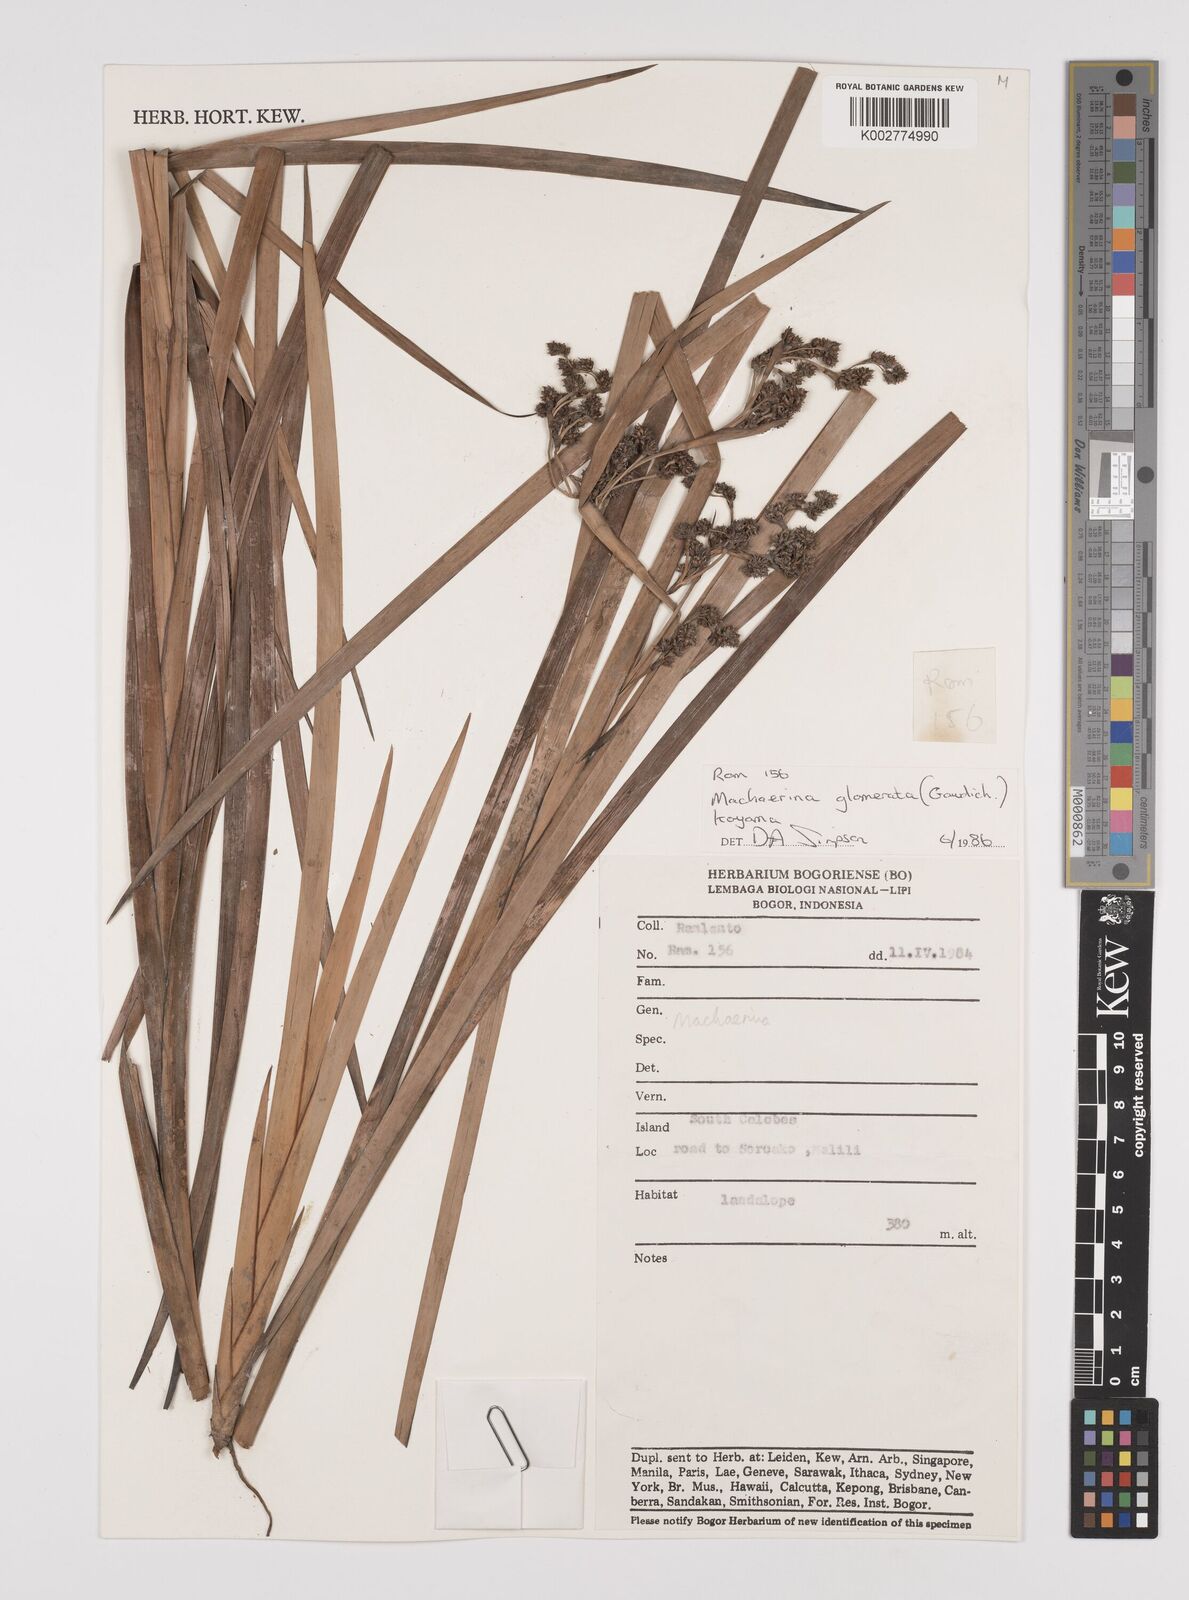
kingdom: Plantae
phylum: Tracheophyta
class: Liliopsida
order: Poales
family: Cyperaceae
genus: Machaerina
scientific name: Machaerina glomerata
